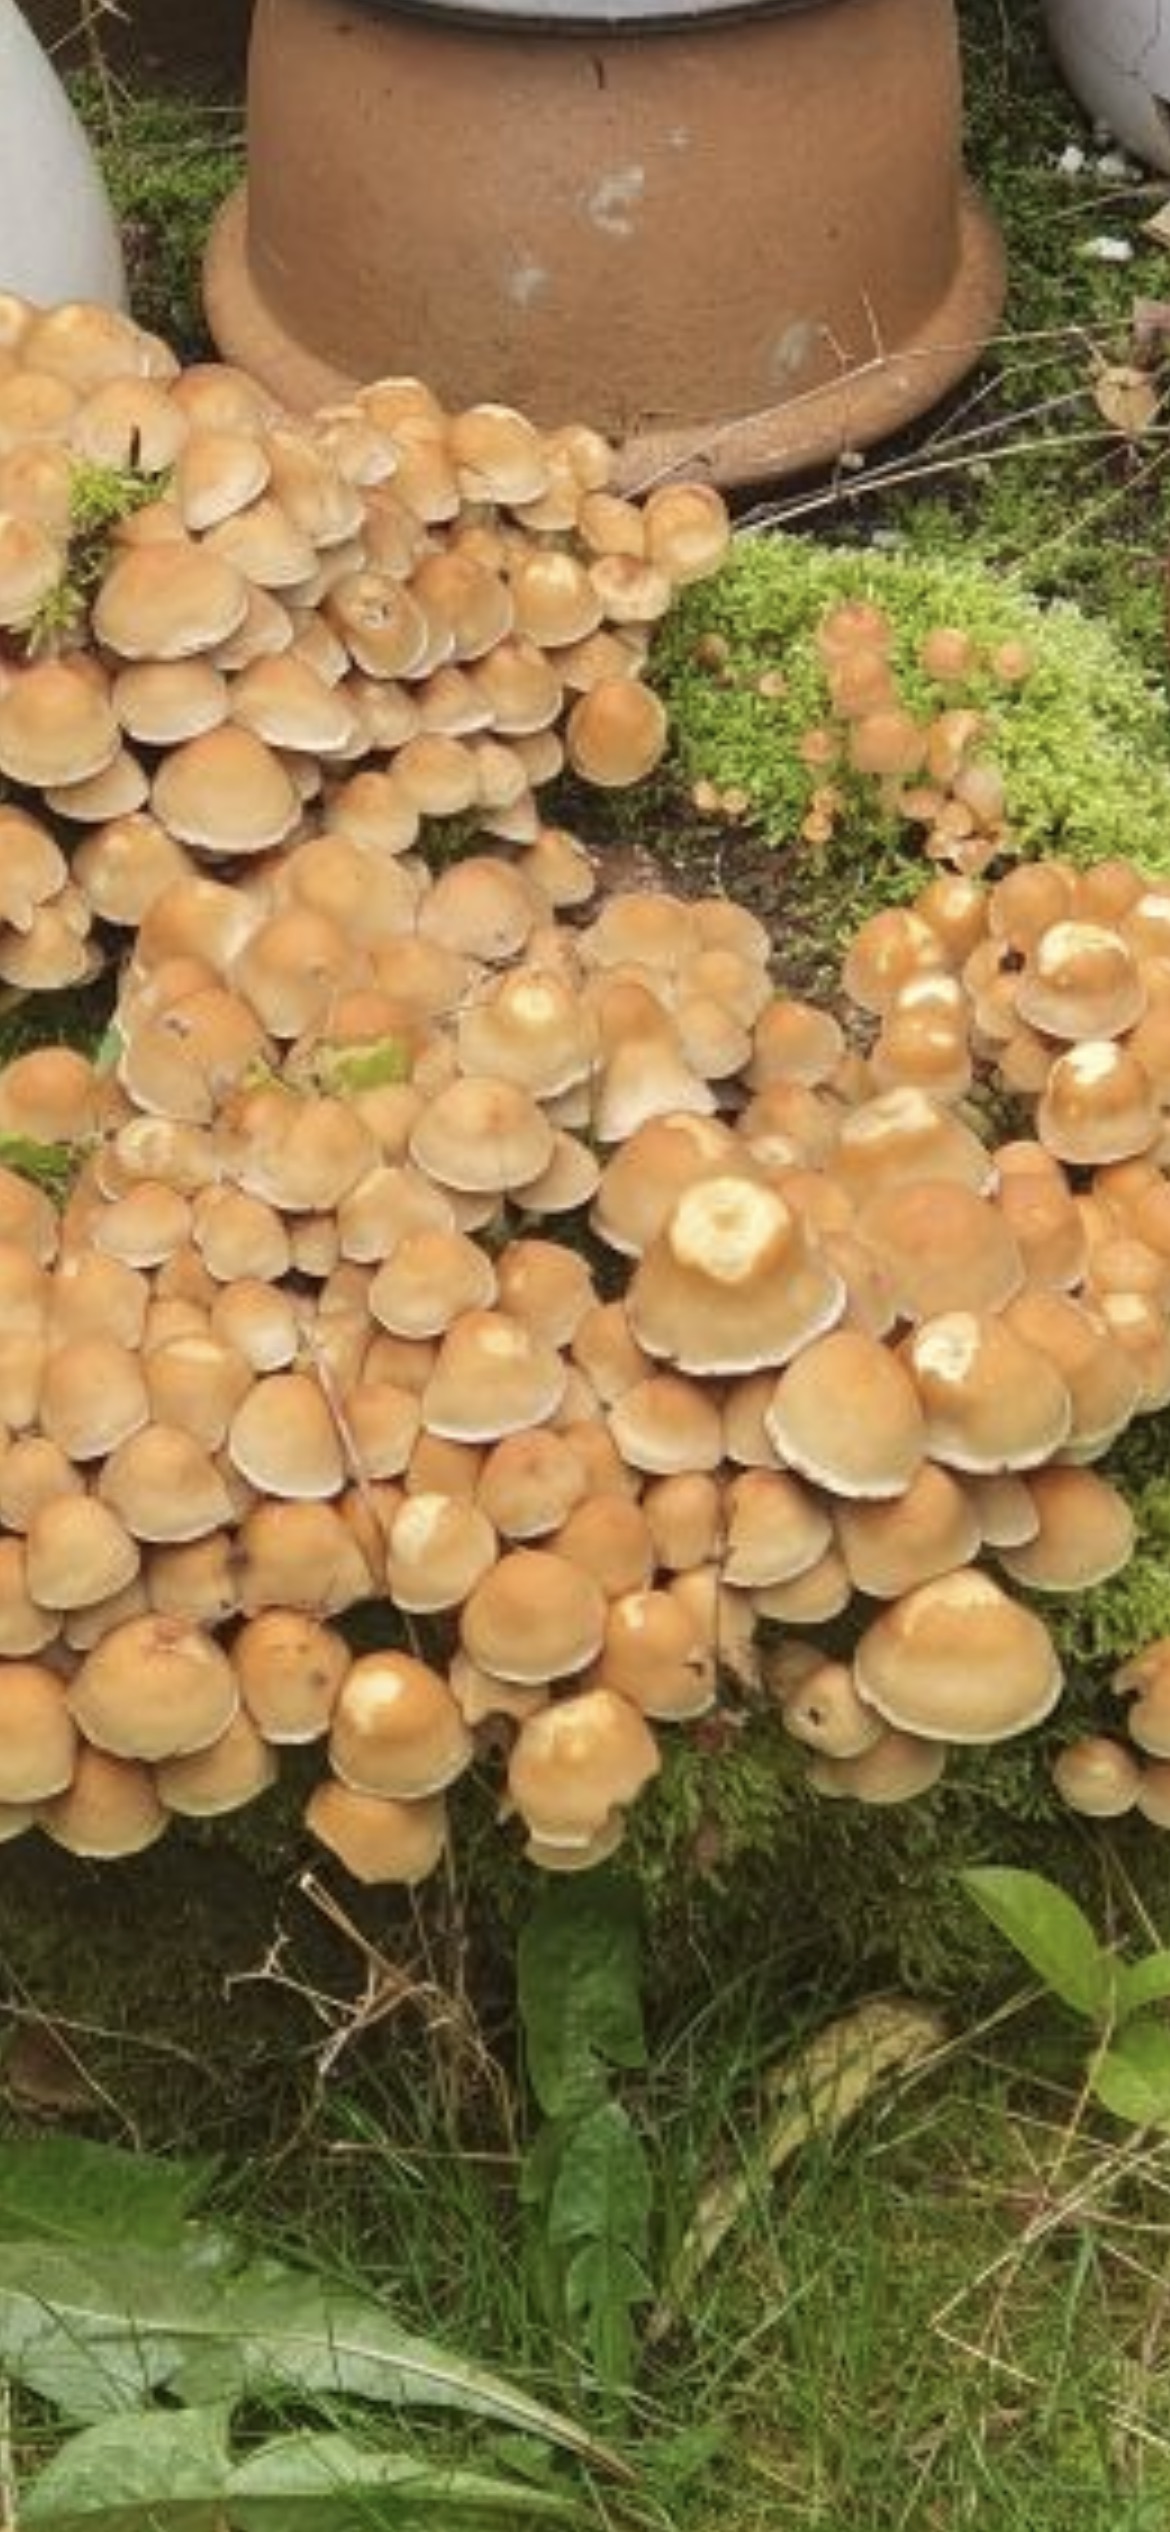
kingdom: Fungi
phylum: Basidiomycota
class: Agaricomycetes
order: Agaricales
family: Strophariaceae
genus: Hypholoma
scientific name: Hypholoma fasciculare
